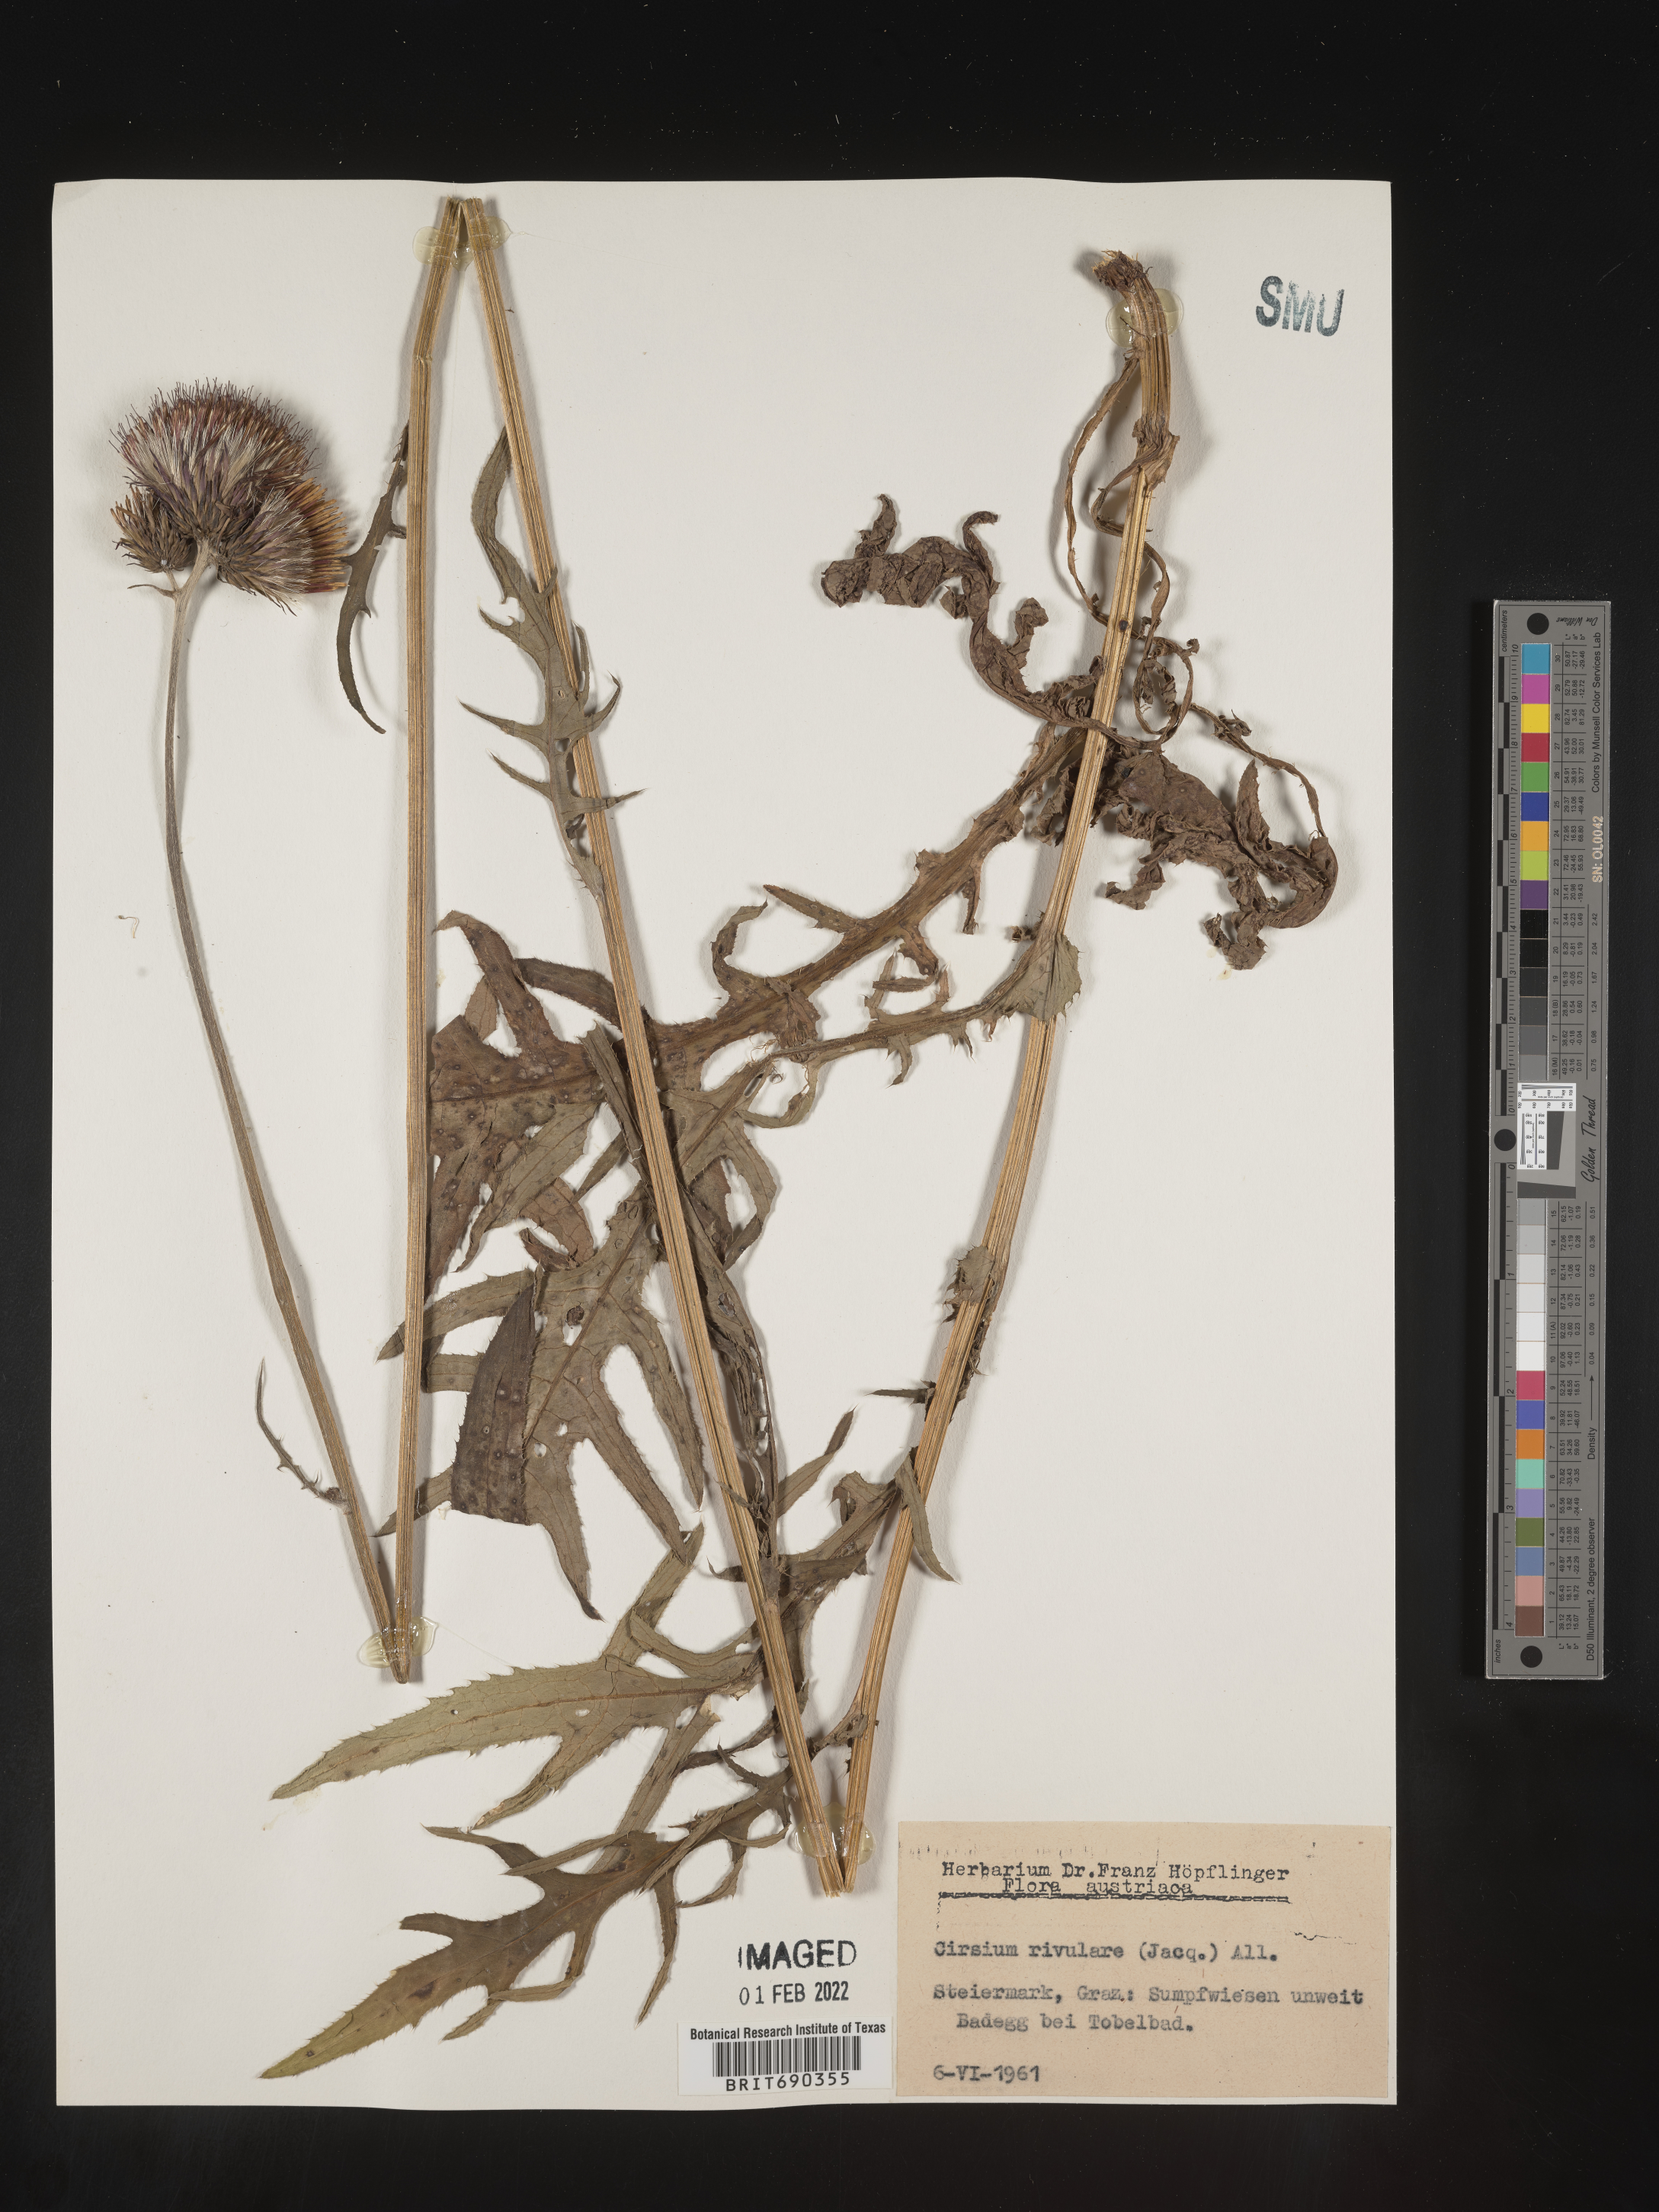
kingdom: Plantae
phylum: Tracheophyta
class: Magnoliopsida
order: Asterales
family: Asteraceae
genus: Cirsium
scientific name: Cirsium
